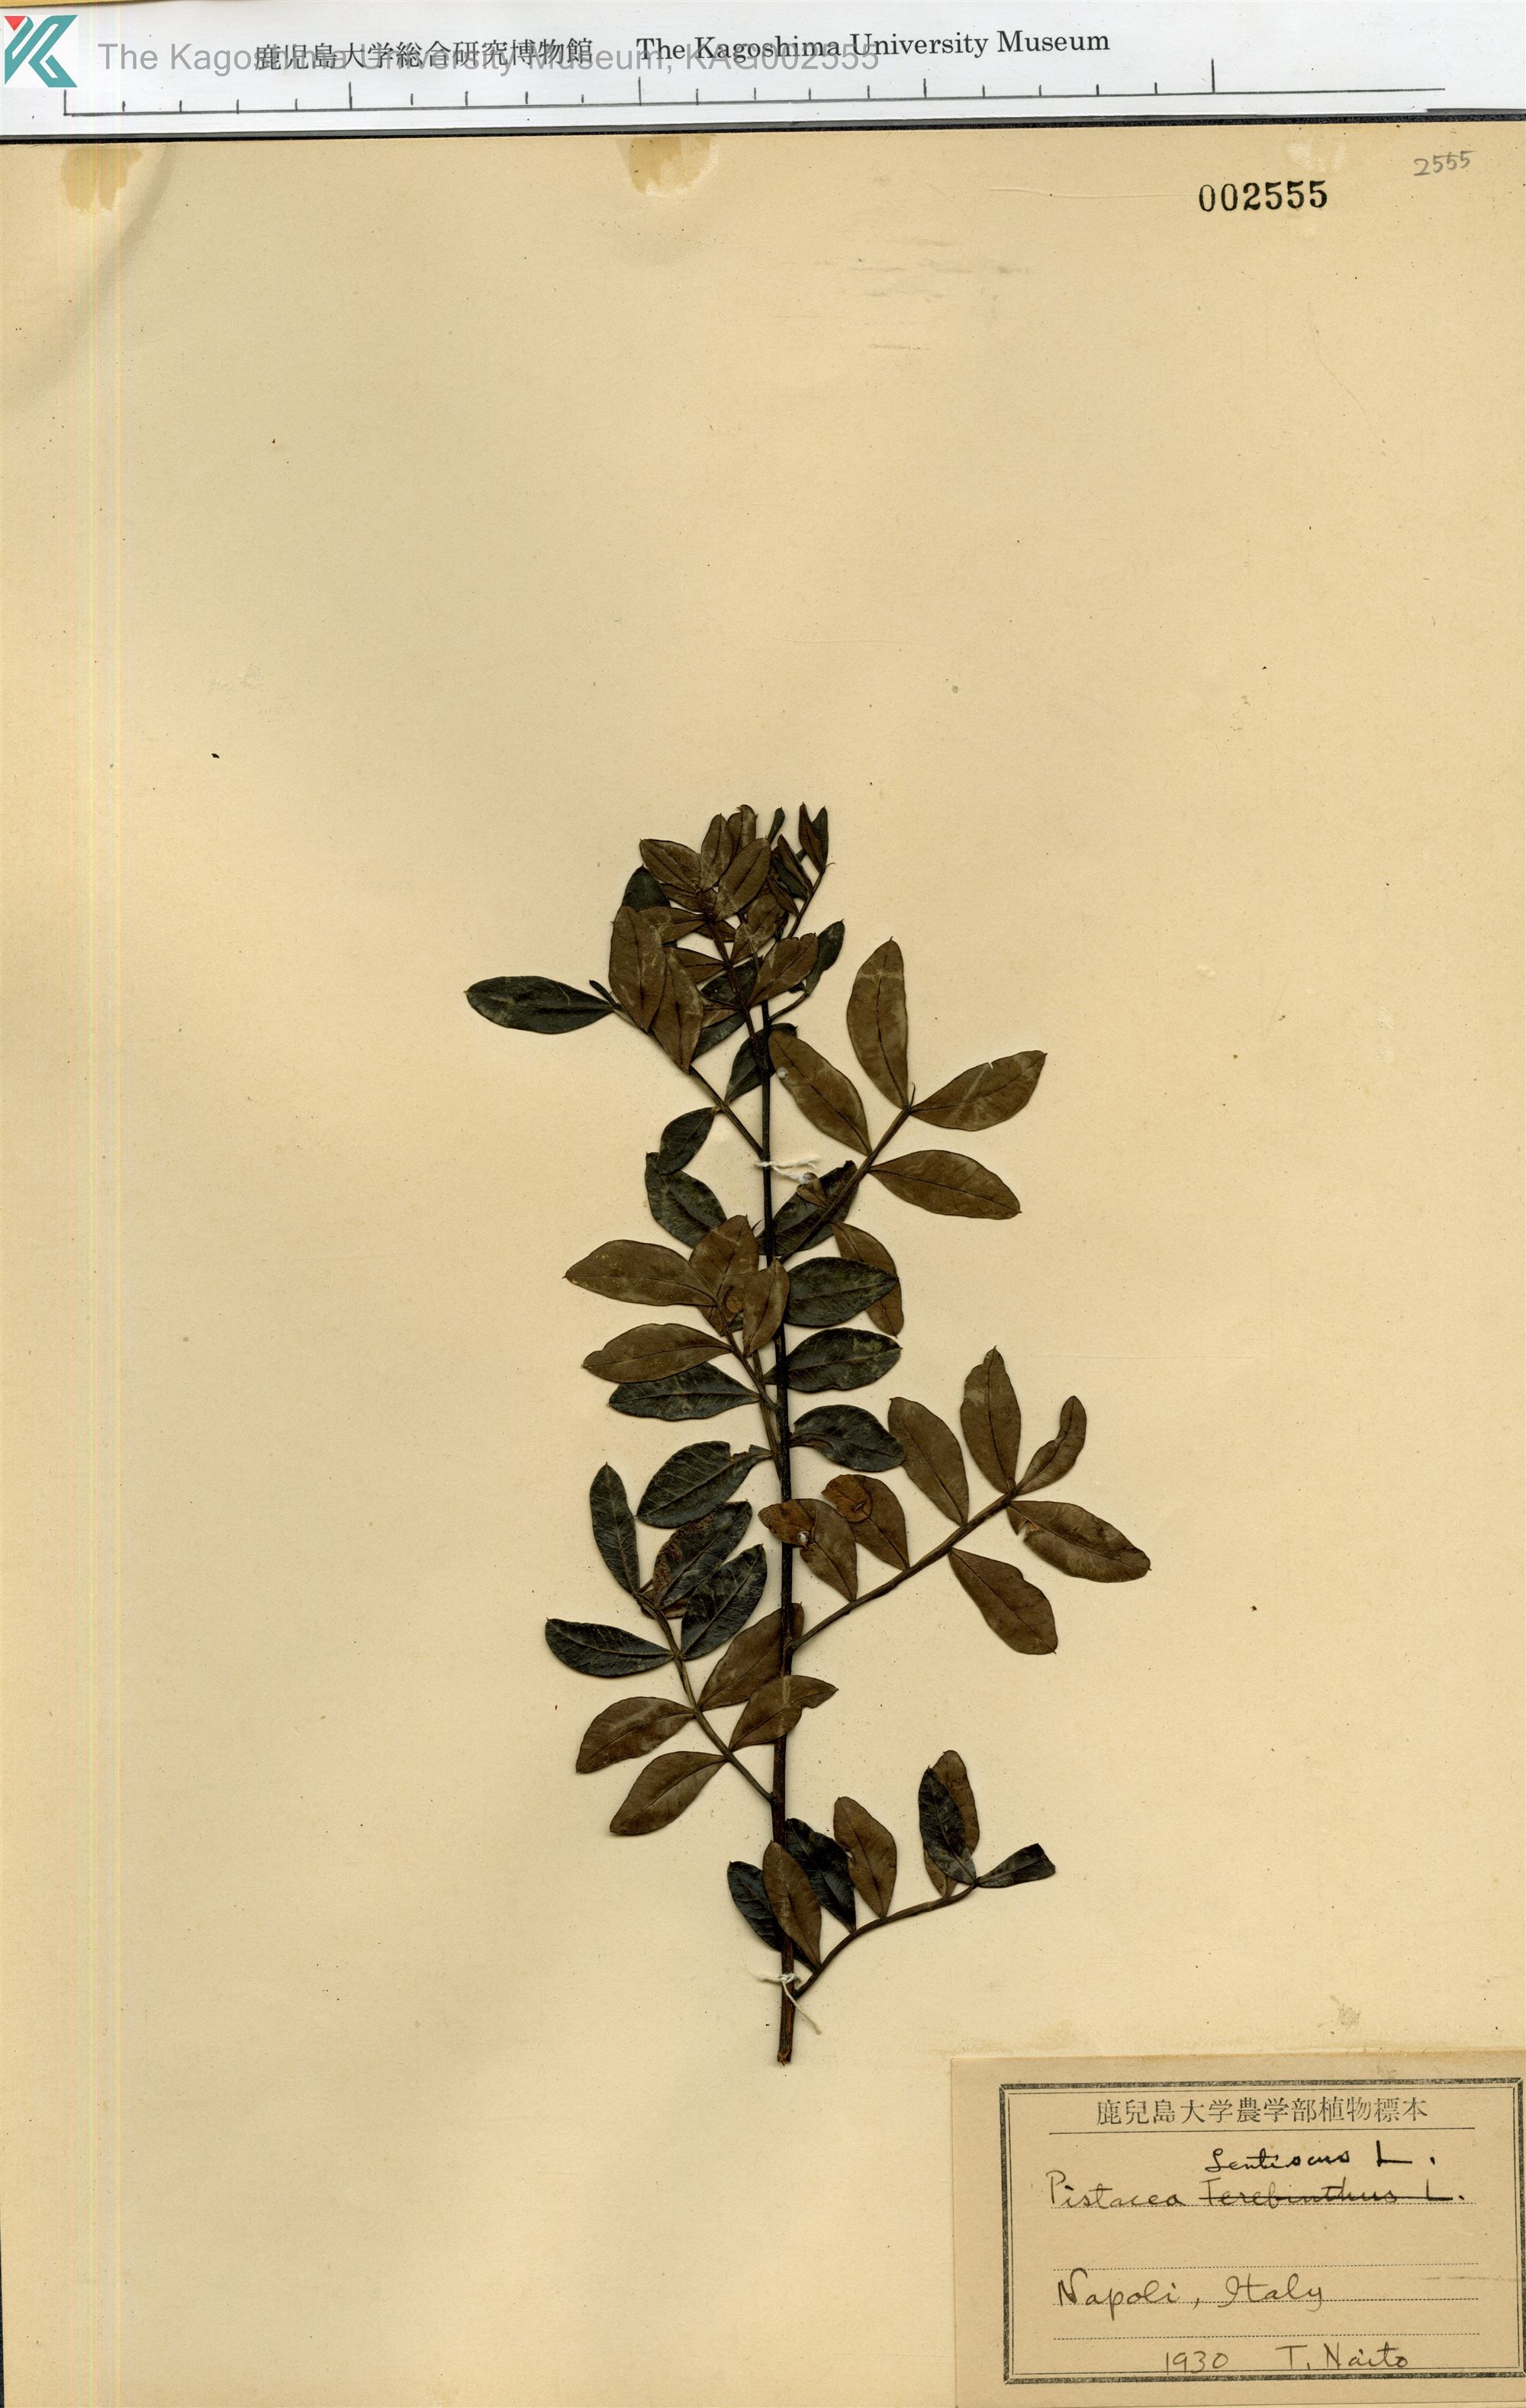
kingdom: Plantae
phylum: Tracheophyta
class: Magnoliopsida
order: Sapindales
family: Anacardiaceae
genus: Pistacia
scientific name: Pistacia lentiscus
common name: Lentisk
